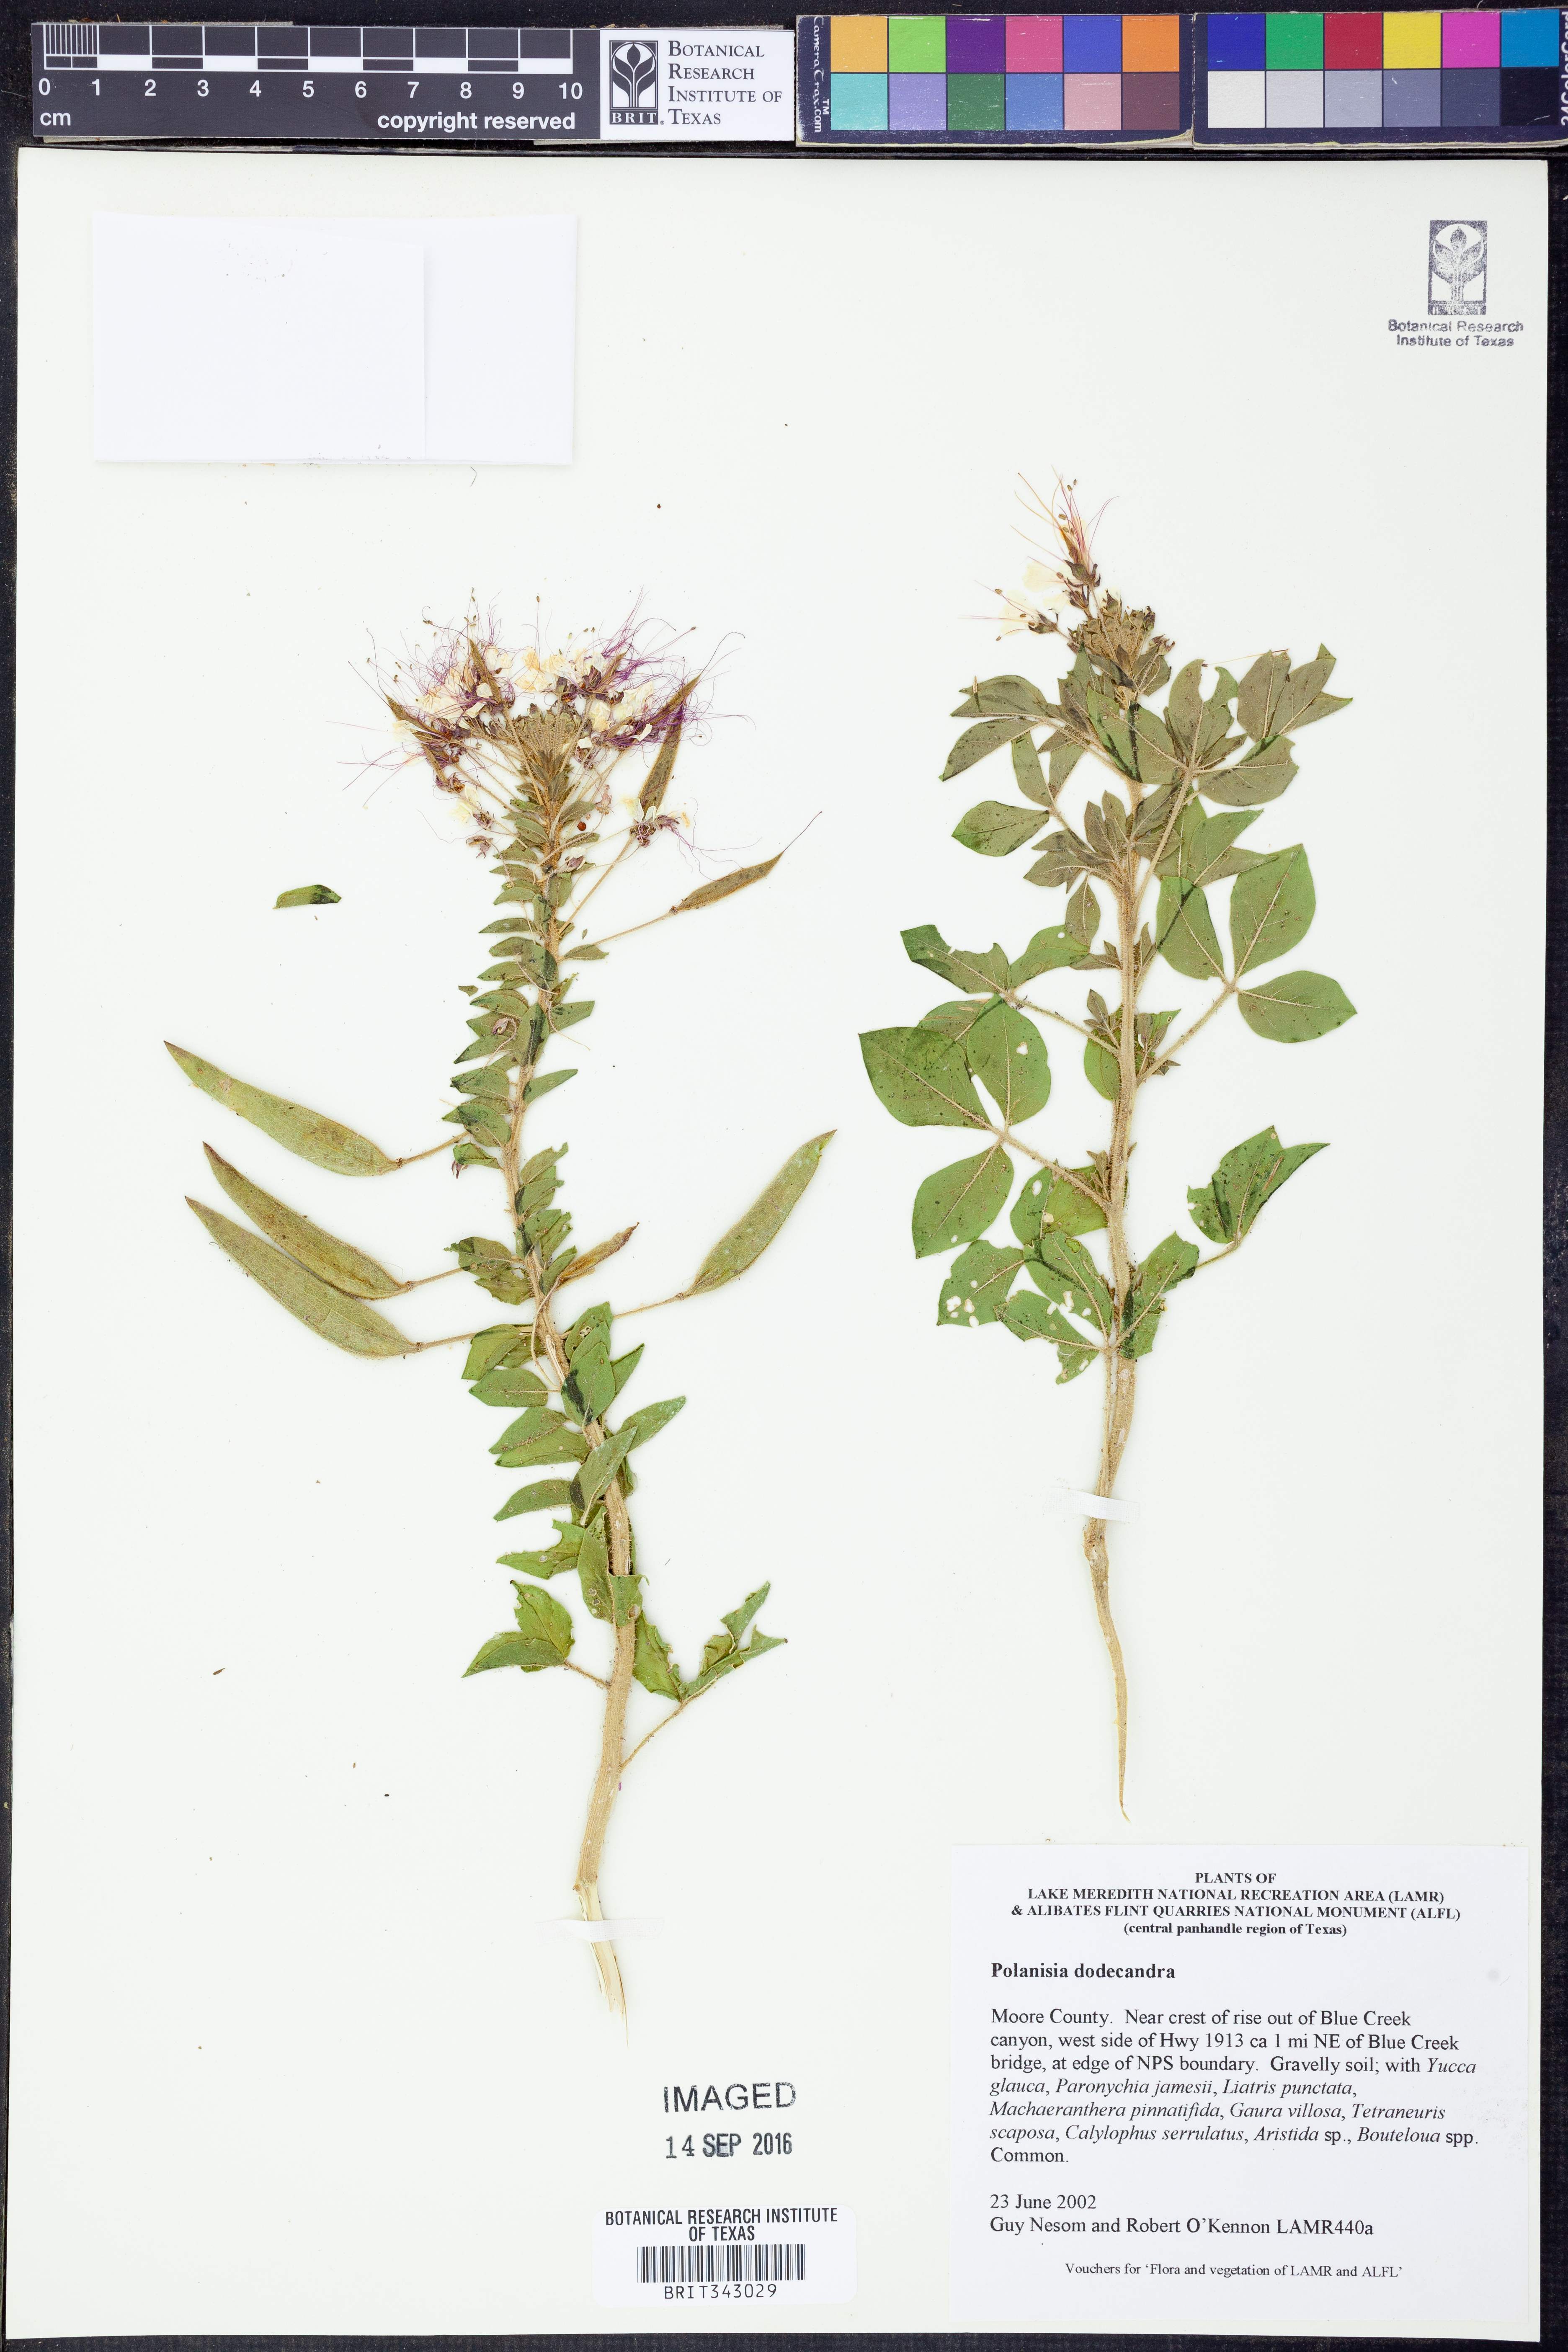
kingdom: Plantae
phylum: Tracheophyta
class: Magnoliopsida
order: Brassicales
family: Cleomaceae
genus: Polanisia
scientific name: Polanisia dodecandra
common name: Clammyweed
